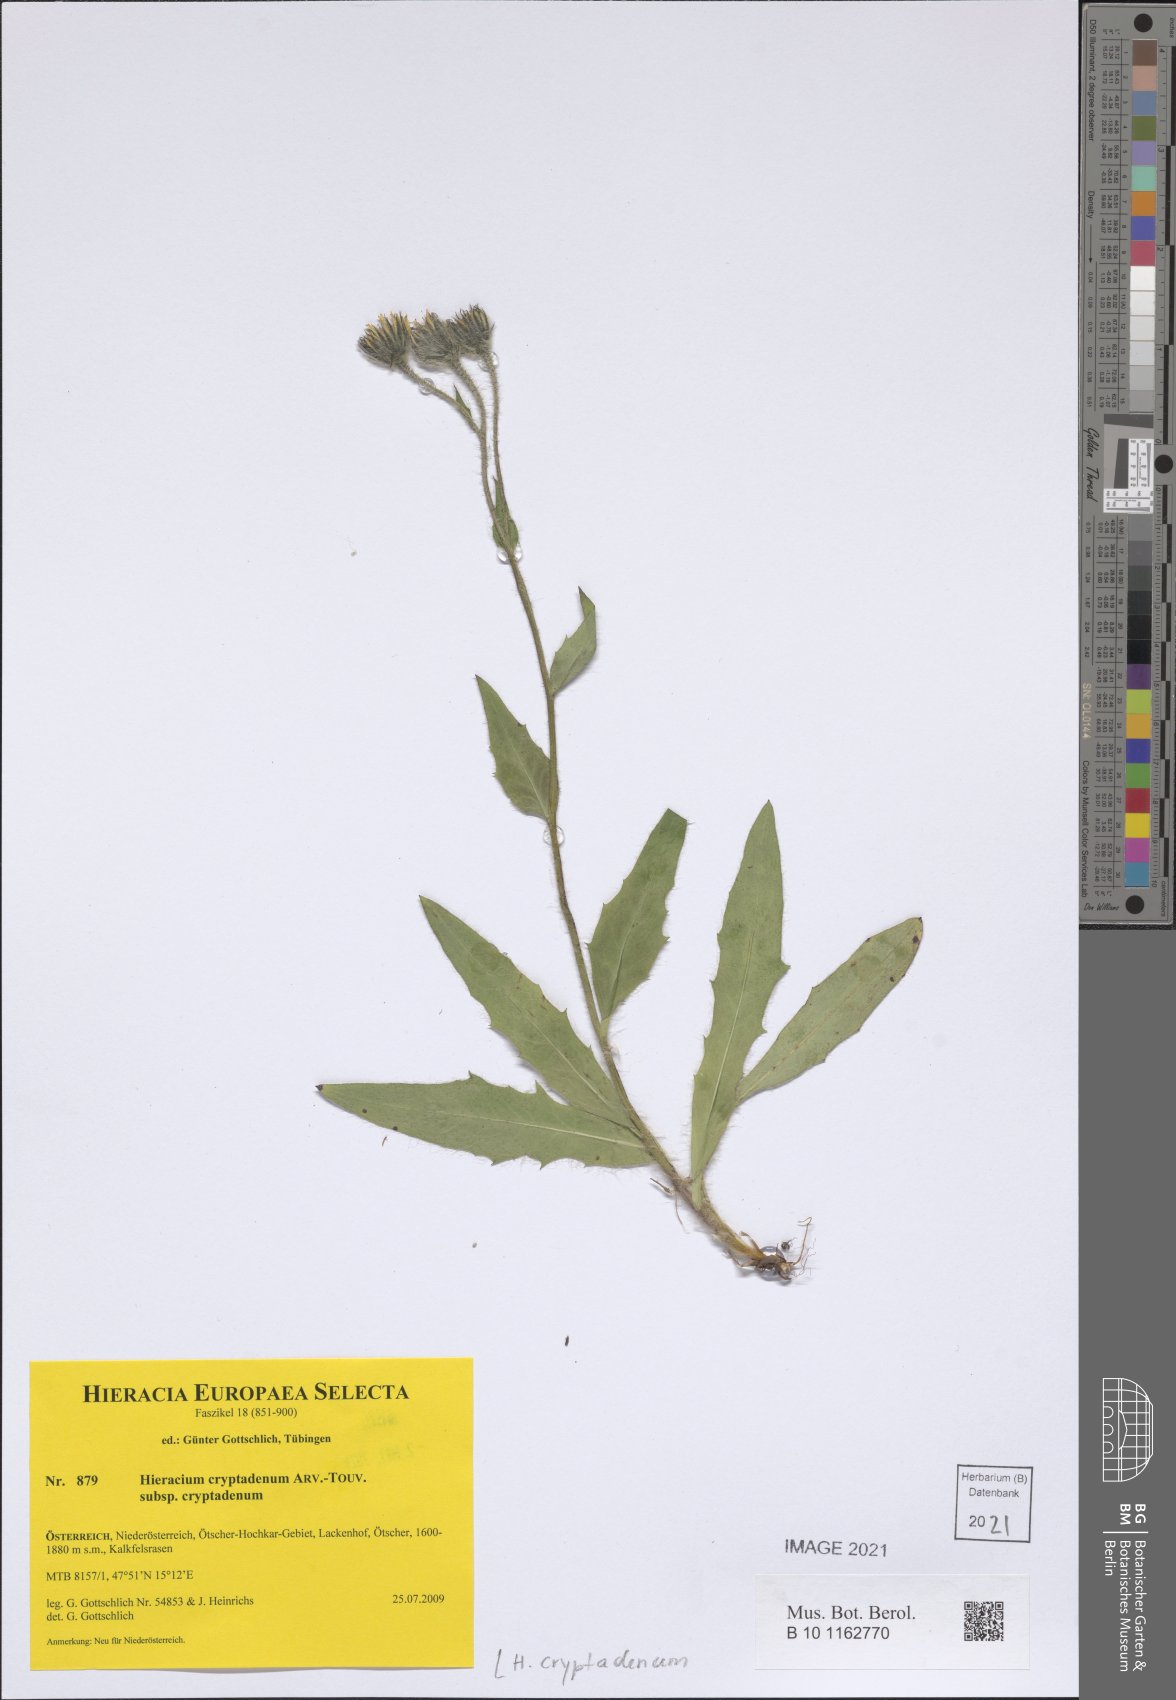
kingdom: Plantae
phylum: Tracheophyta
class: Magnoliopsida
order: Asterales
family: Asteraceae
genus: Hieracium
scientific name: Hieracium cryptadenum
